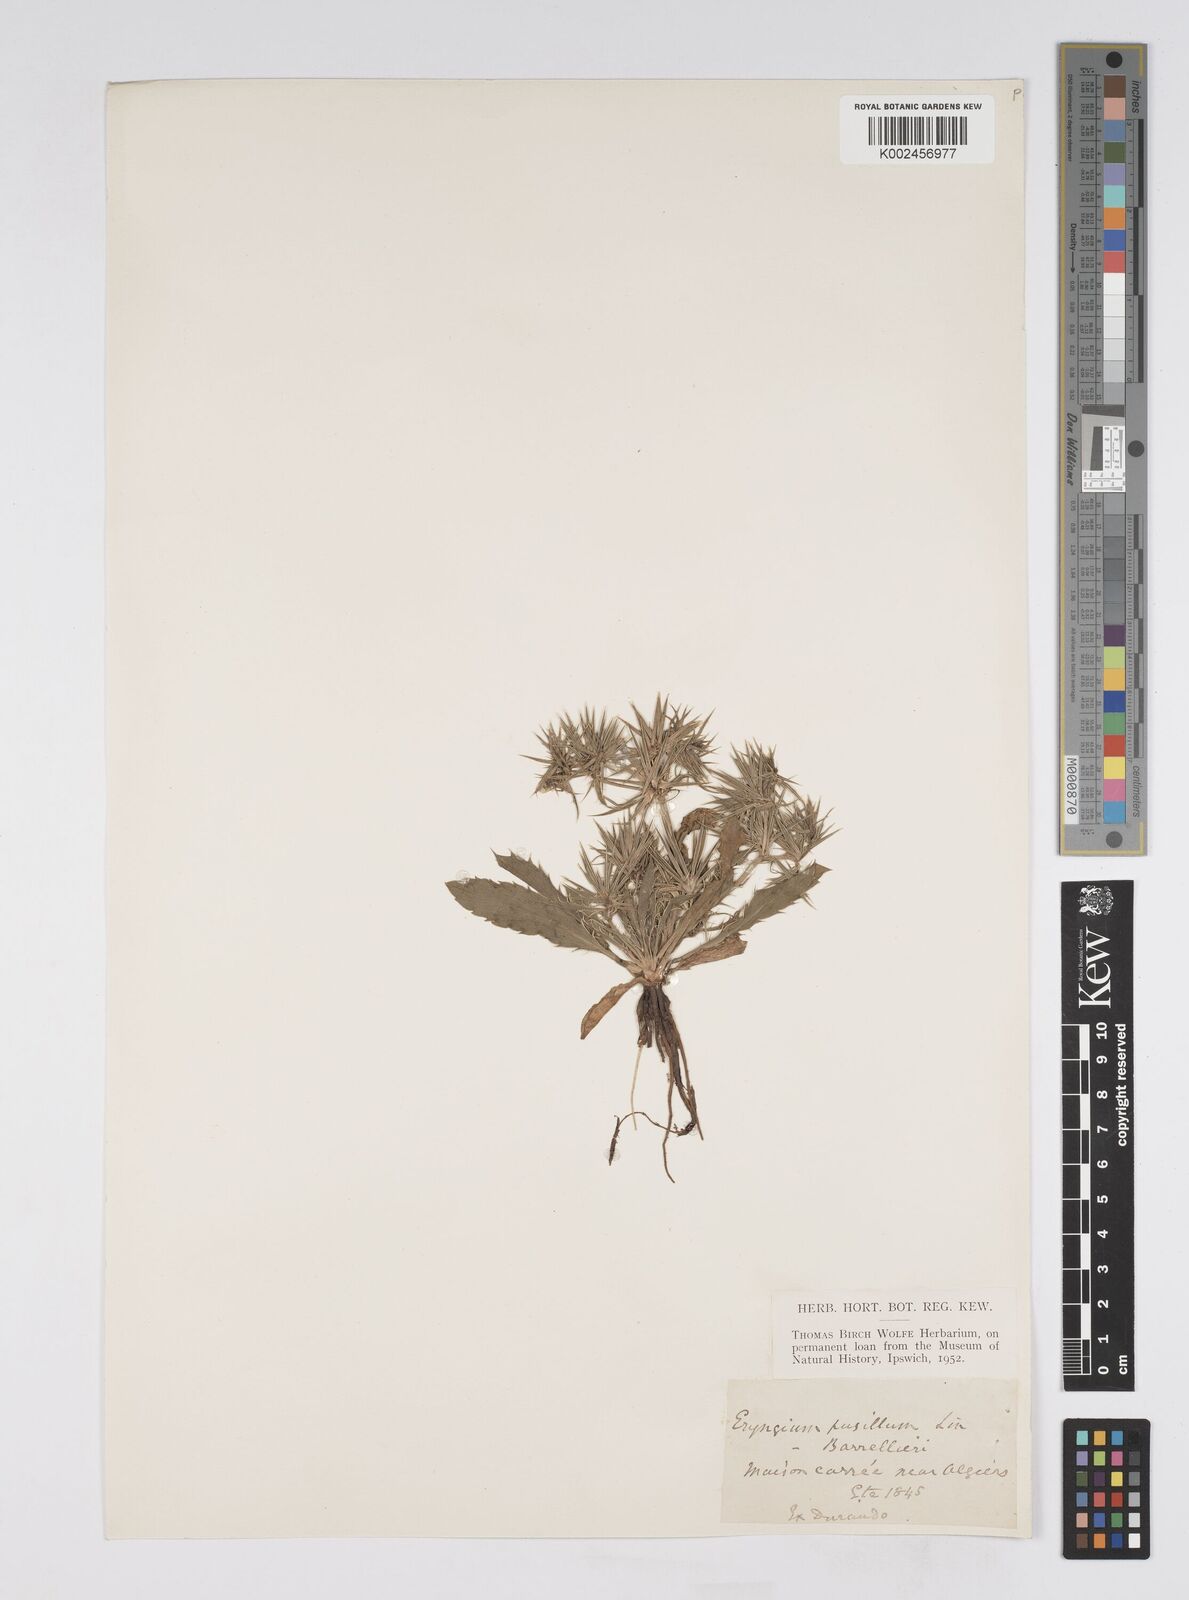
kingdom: Plantae
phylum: Tracheophyta
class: Magnoliopsida
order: Apiales
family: Apiaceae
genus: Eryngium
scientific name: Eryngium pusillum
